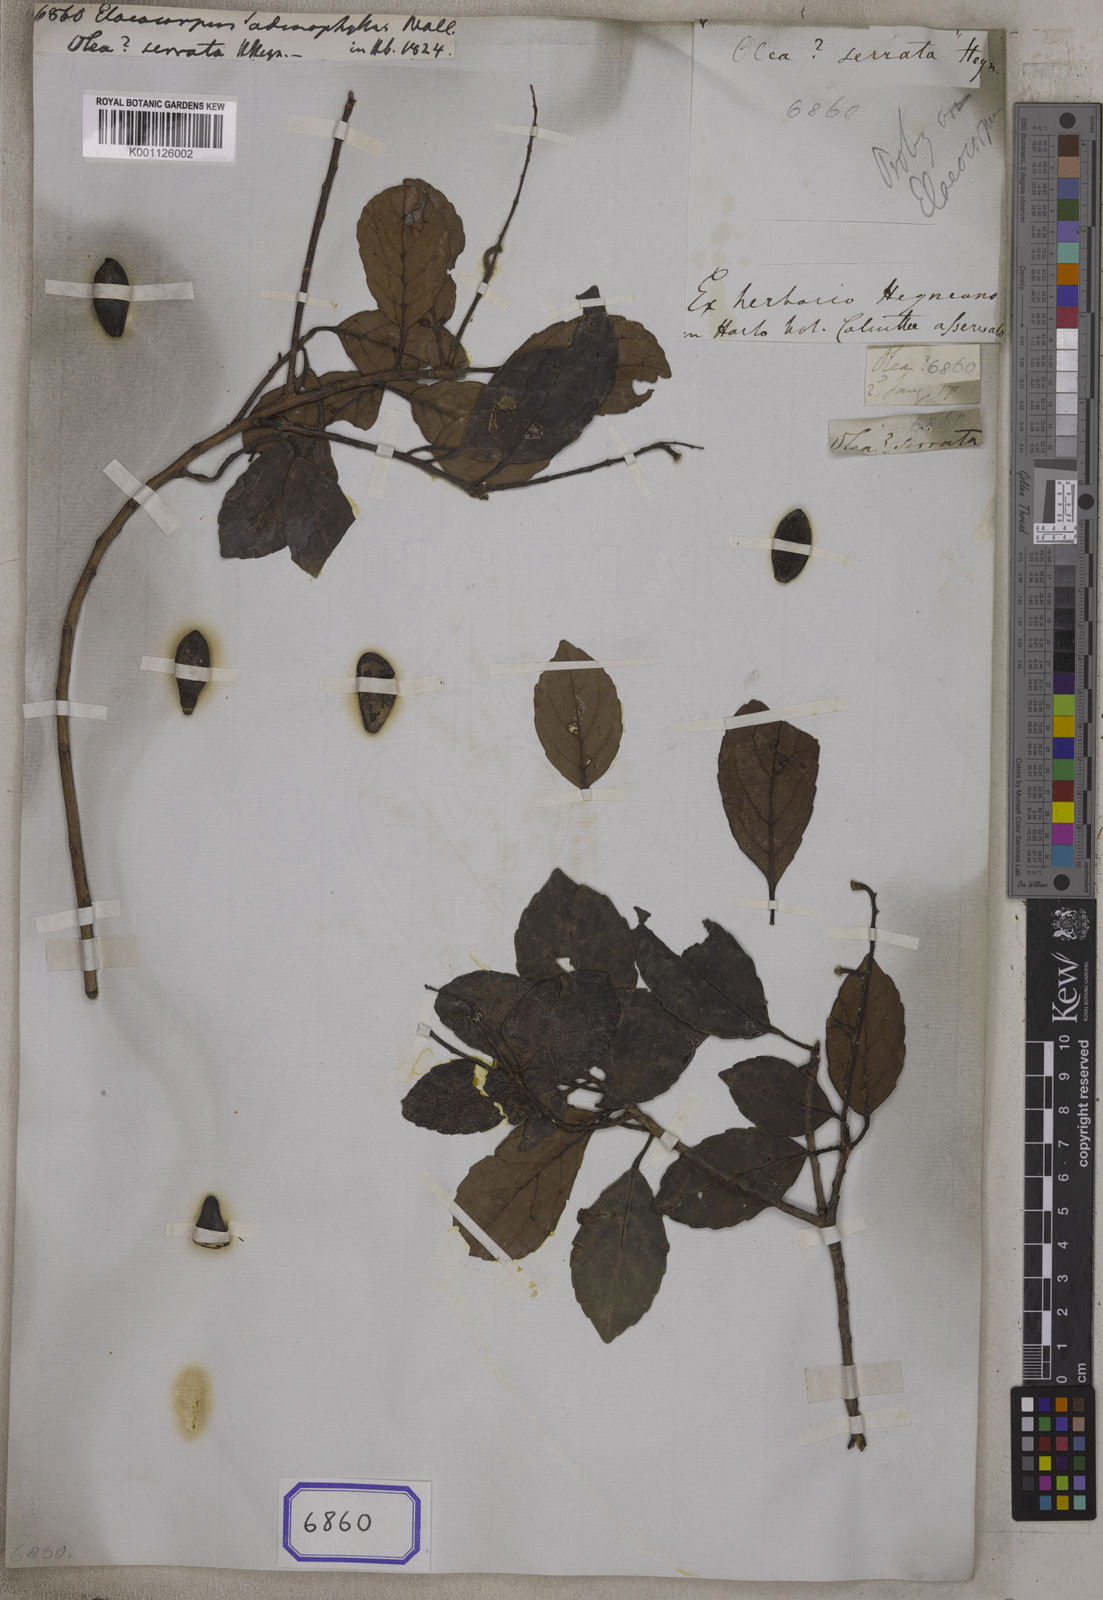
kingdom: Plantae
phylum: Tracheophyta
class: Magnoliopsida
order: Oxalidales
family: Elaeocarpaceae
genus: Elaeocarpus
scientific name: Elaeocarpus serratus
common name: Ceylon-olive
